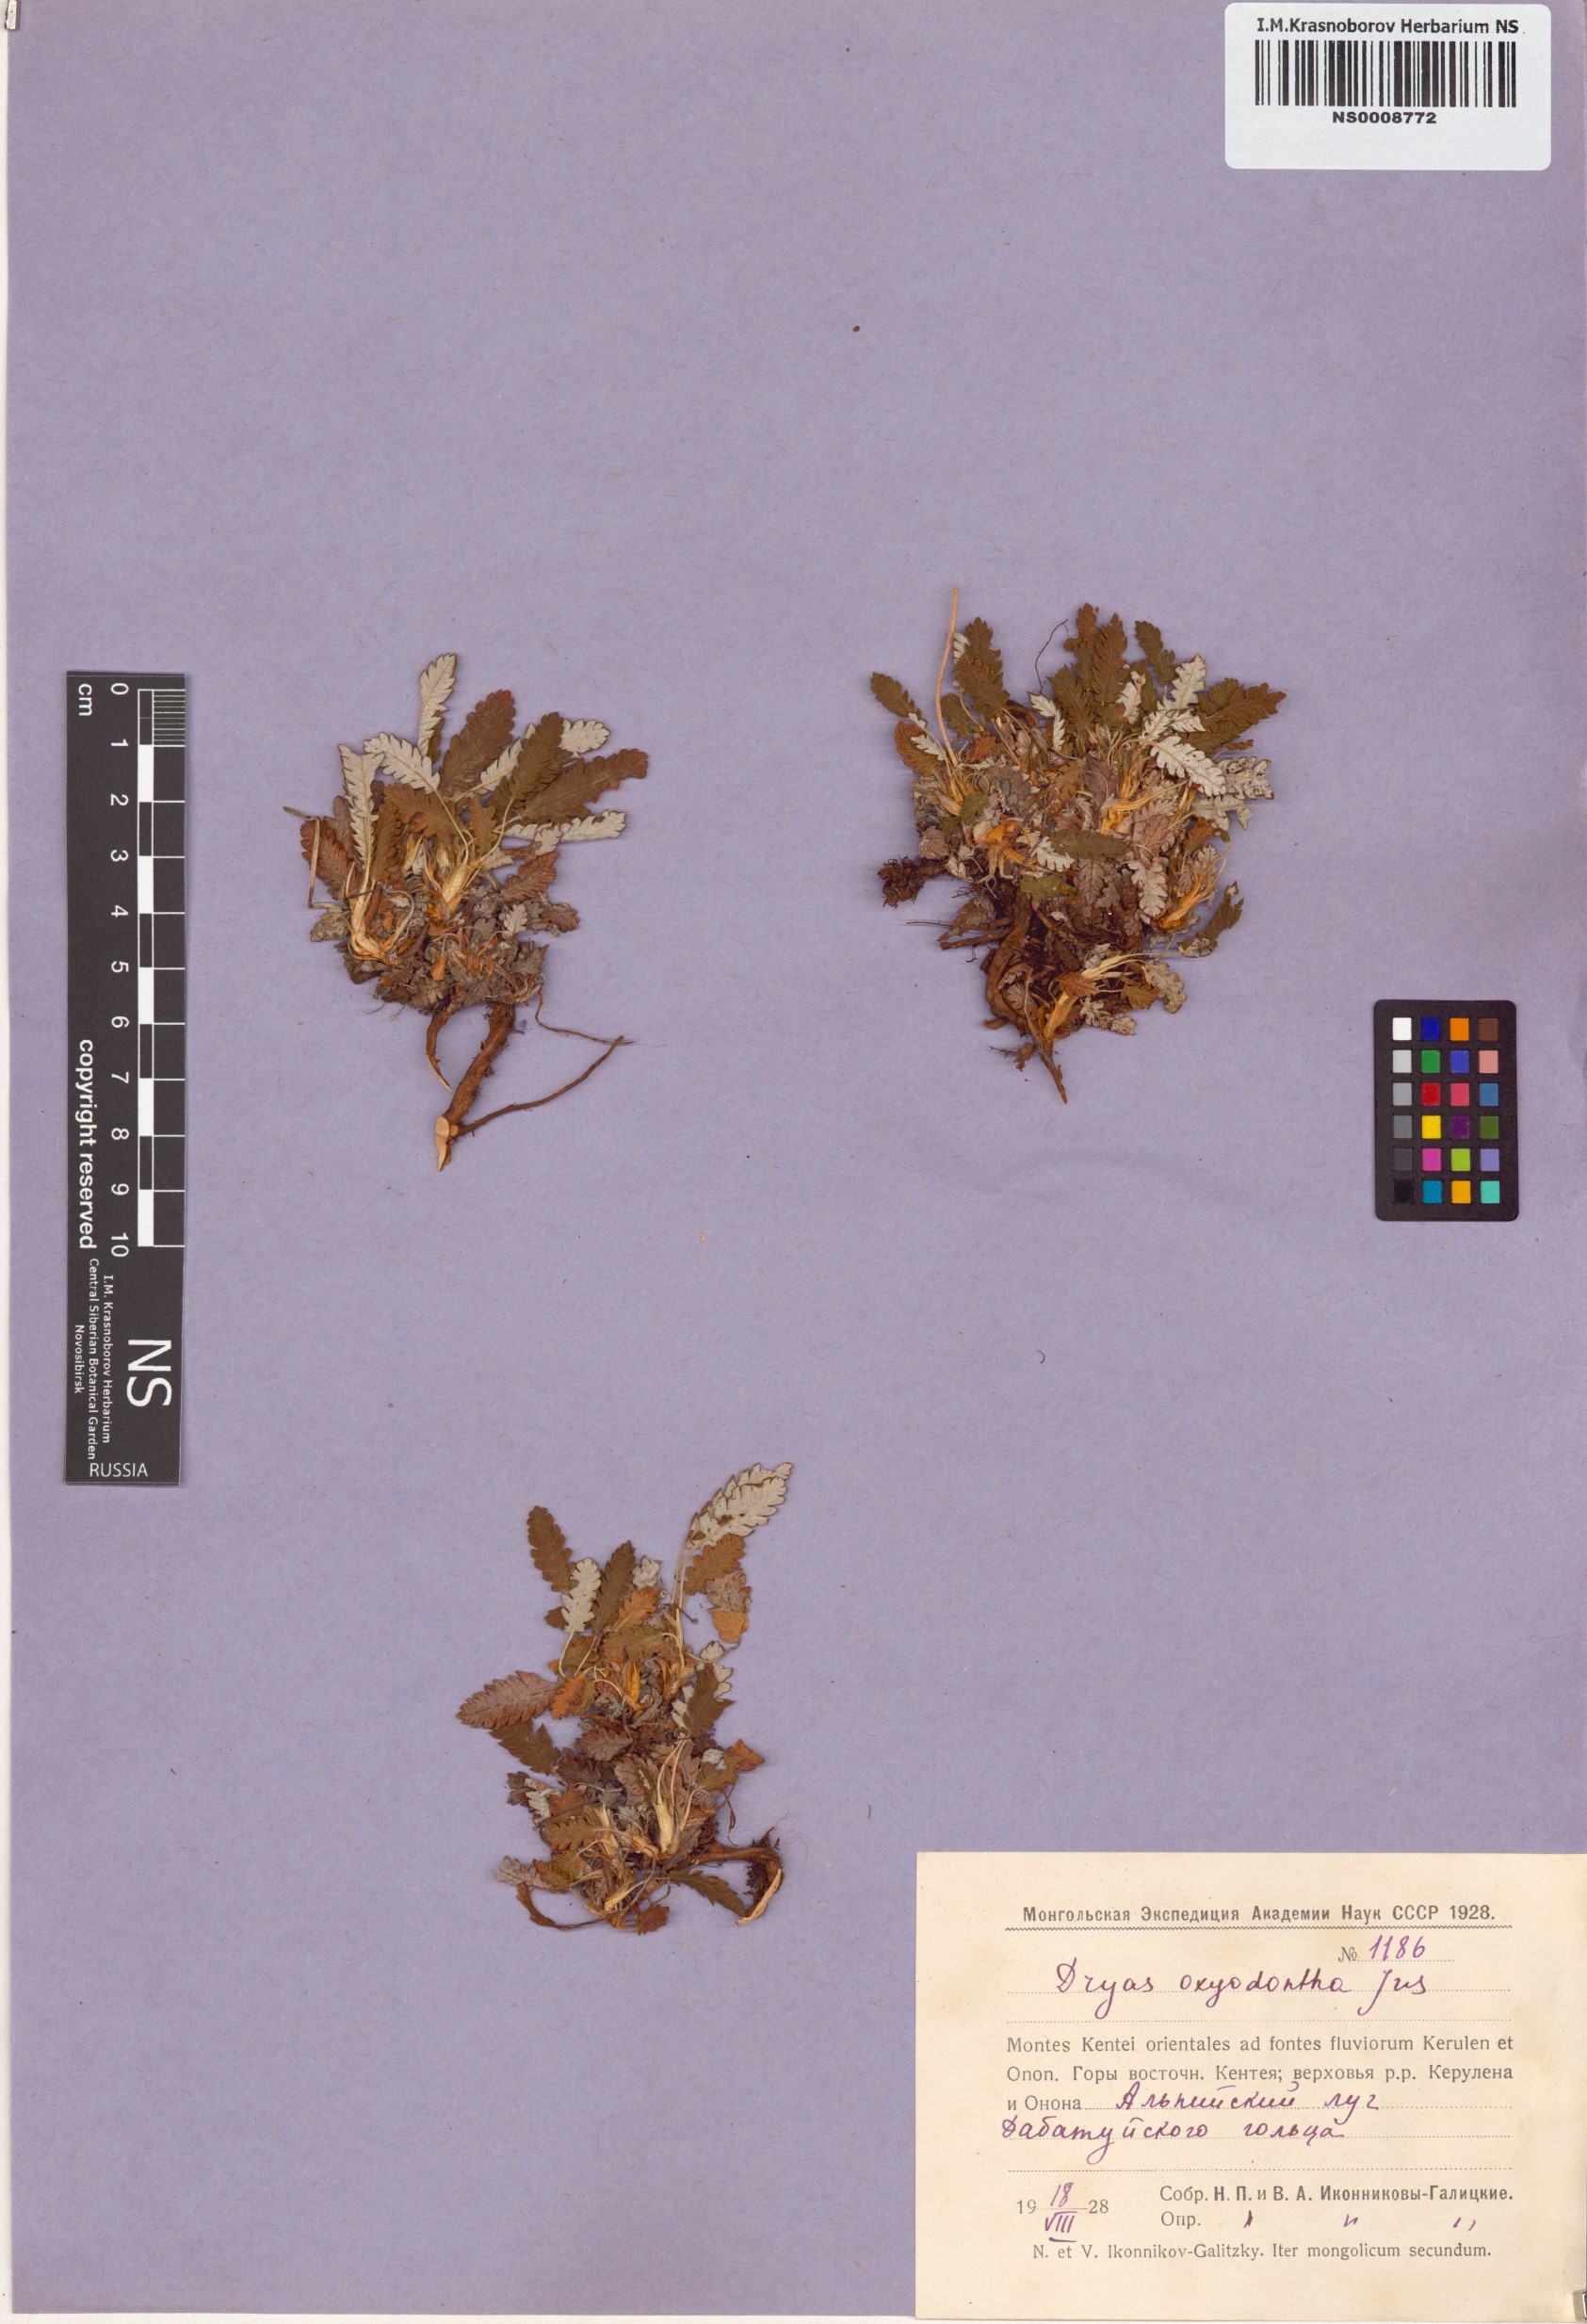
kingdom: Plantae
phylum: Tracheophyta
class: Magnoliopsida
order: Rosales
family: Rosaceae
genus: Dryas
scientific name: Dryas octopetala
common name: Eight-petal mountain-avens
